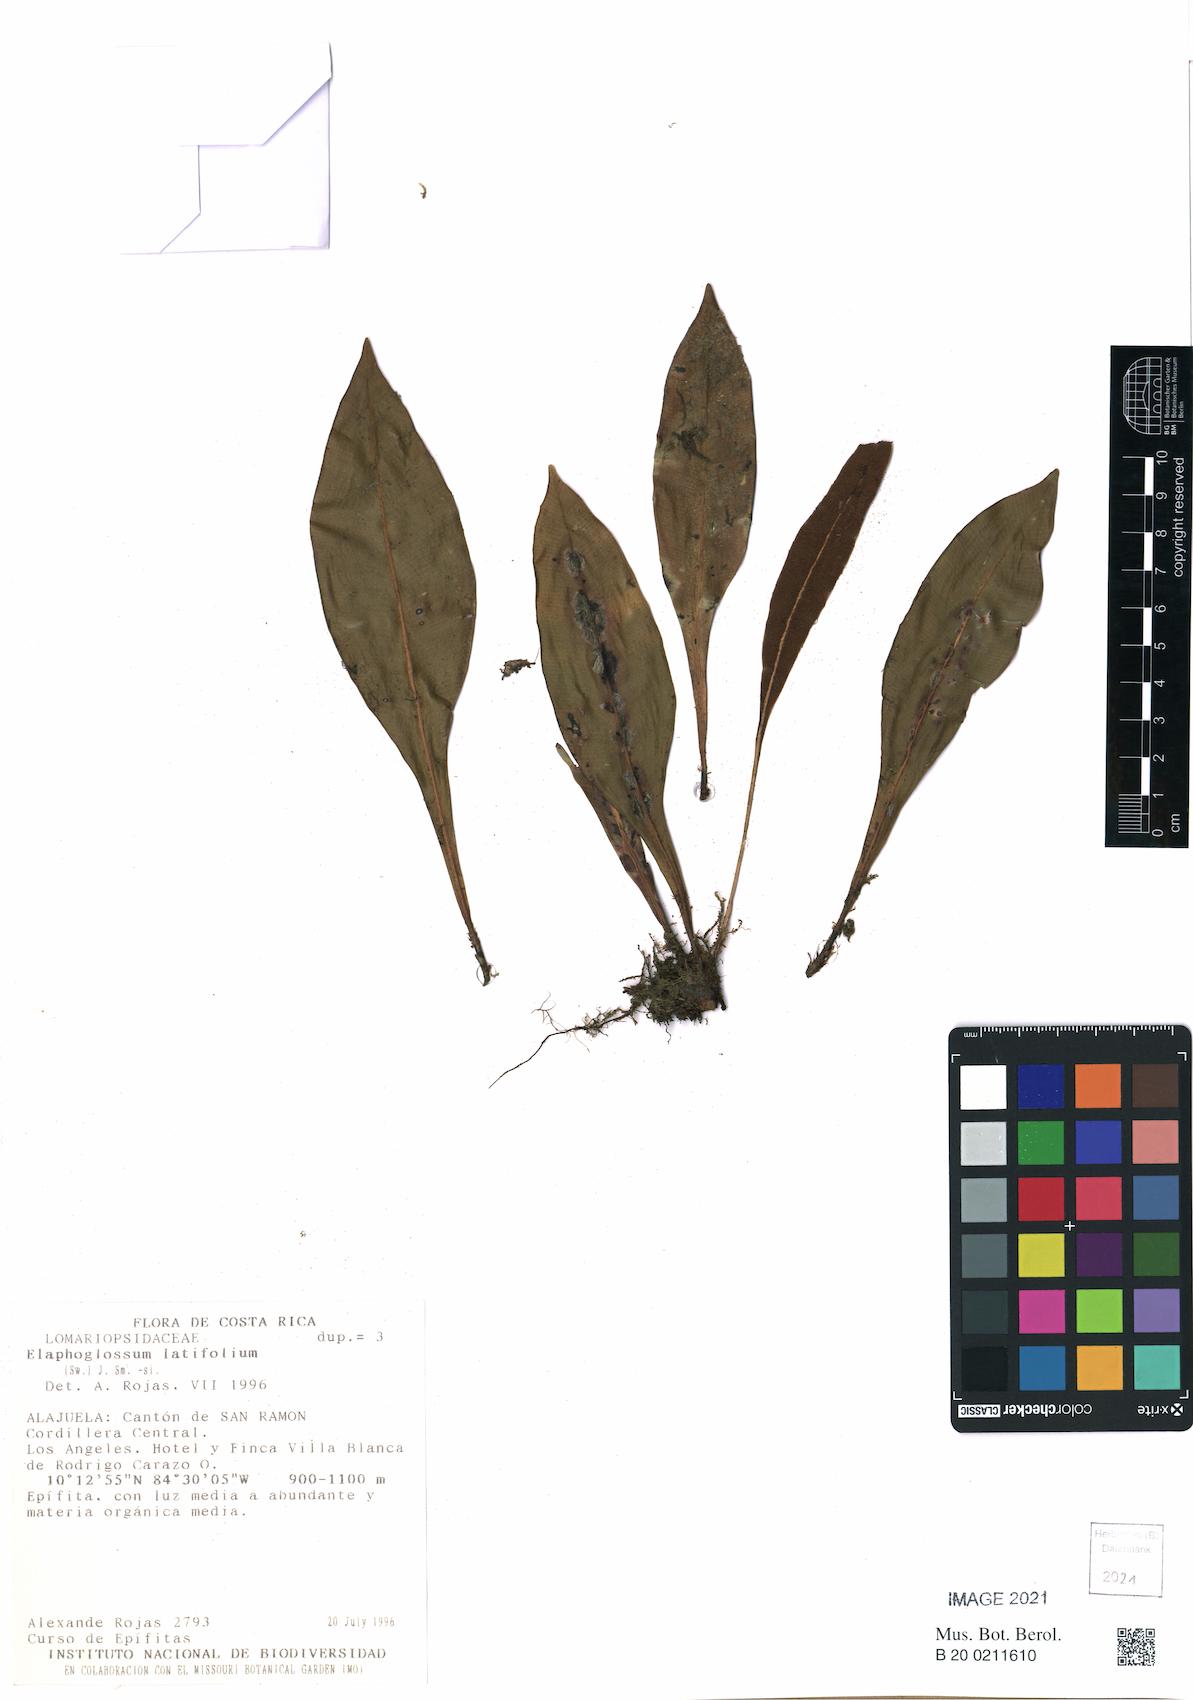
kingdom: Plantae
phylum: Tracheophyta
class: Polypodiopsida
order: Polypodiales
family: Dryopteridaceae
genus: Elaphoglossum
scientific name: Elaphoglossum latifolium
